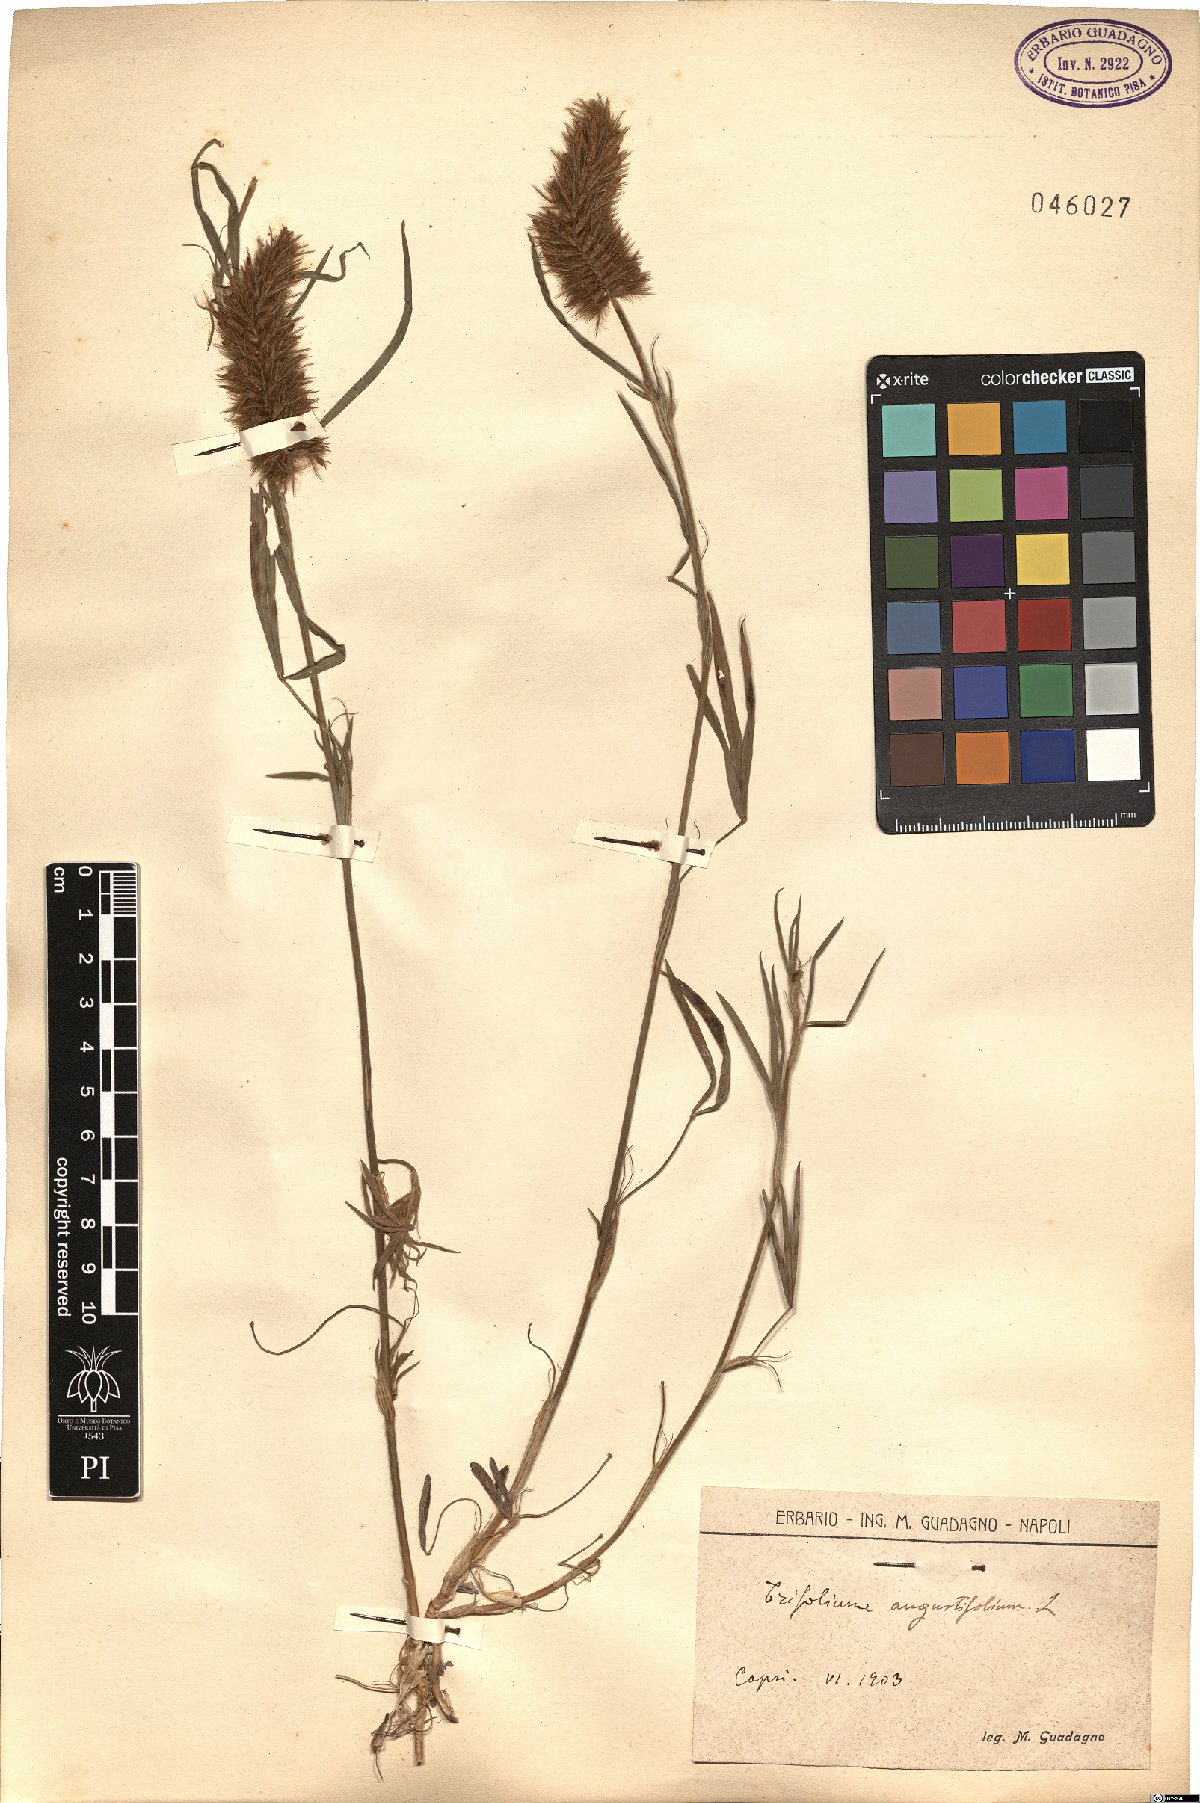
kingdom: Plantae
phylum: Tracheophyta
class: Magnoliopsida
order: Fabales
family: Fabaceae
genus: Trifolium
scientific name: Trifolium angustifolium
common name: Narrow clover
